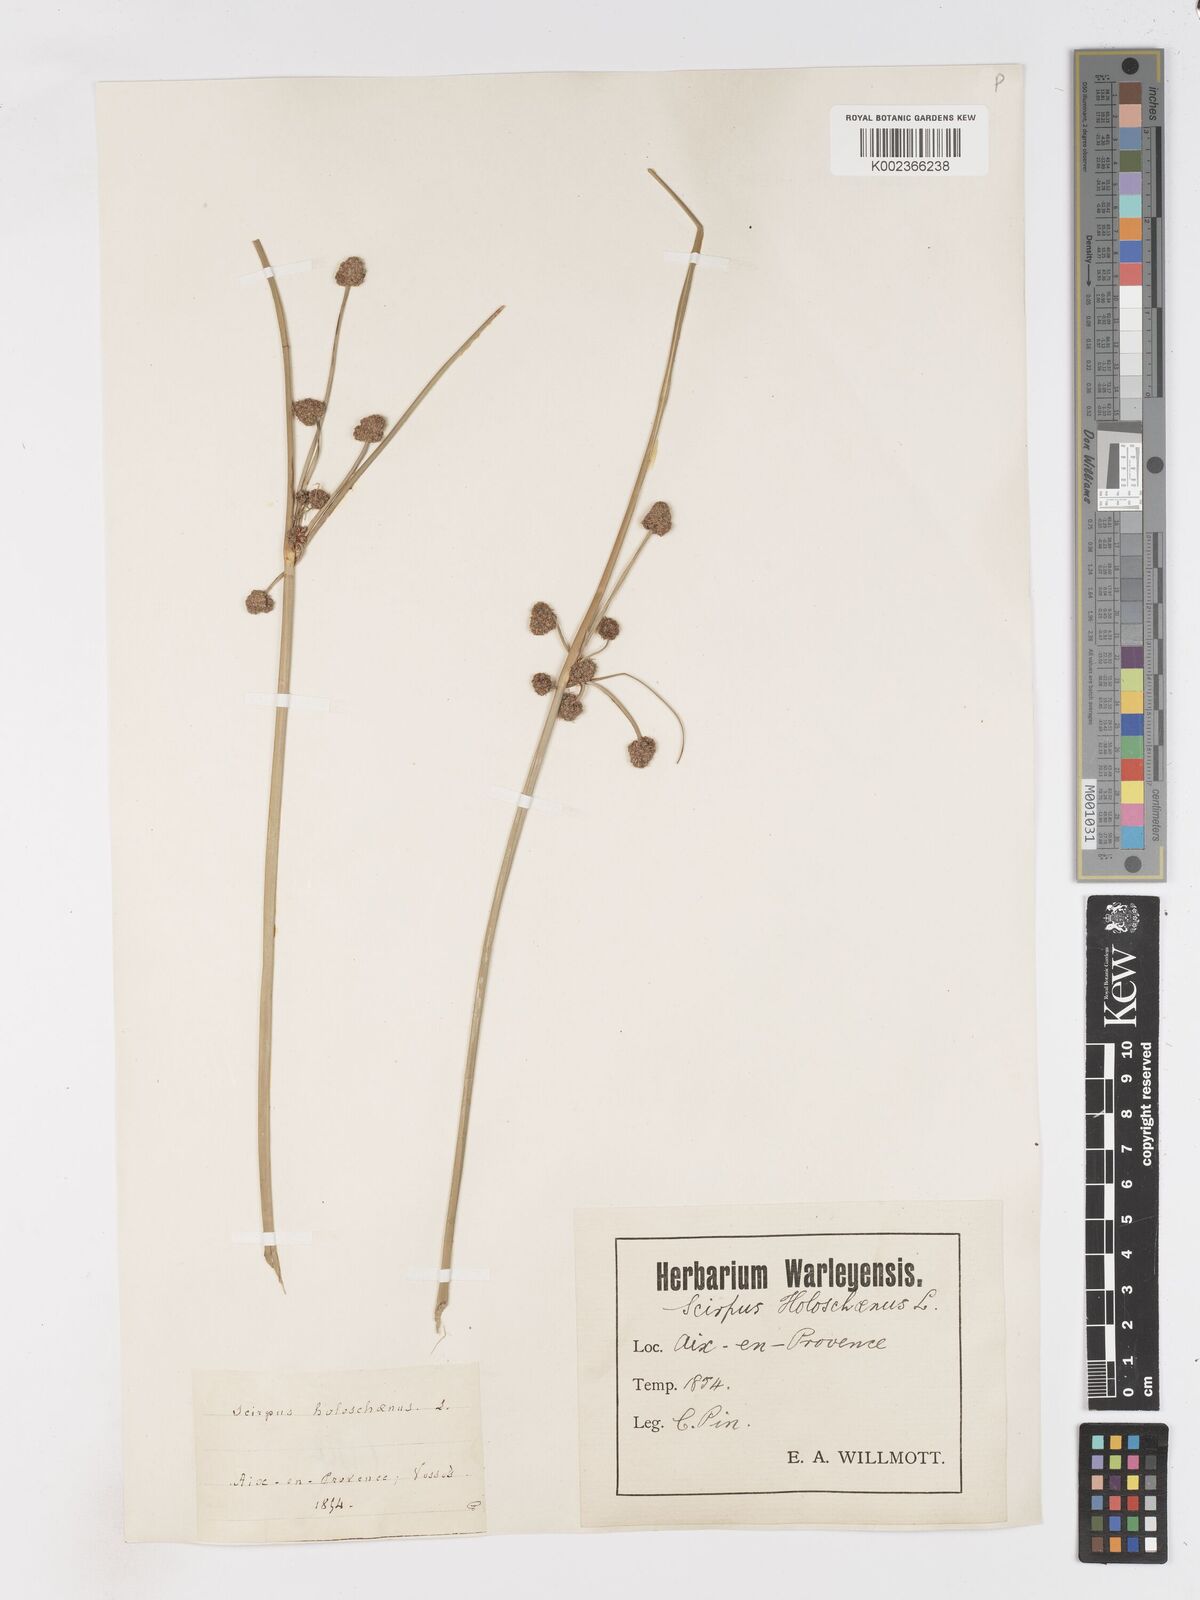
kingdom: Plantae
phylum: Tracheophyta
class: Liliopsida
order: Poales
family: Cyperaceae
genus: Scirpoides
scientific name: Scirpoides holoschoenus
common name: Round-headed club-rush
